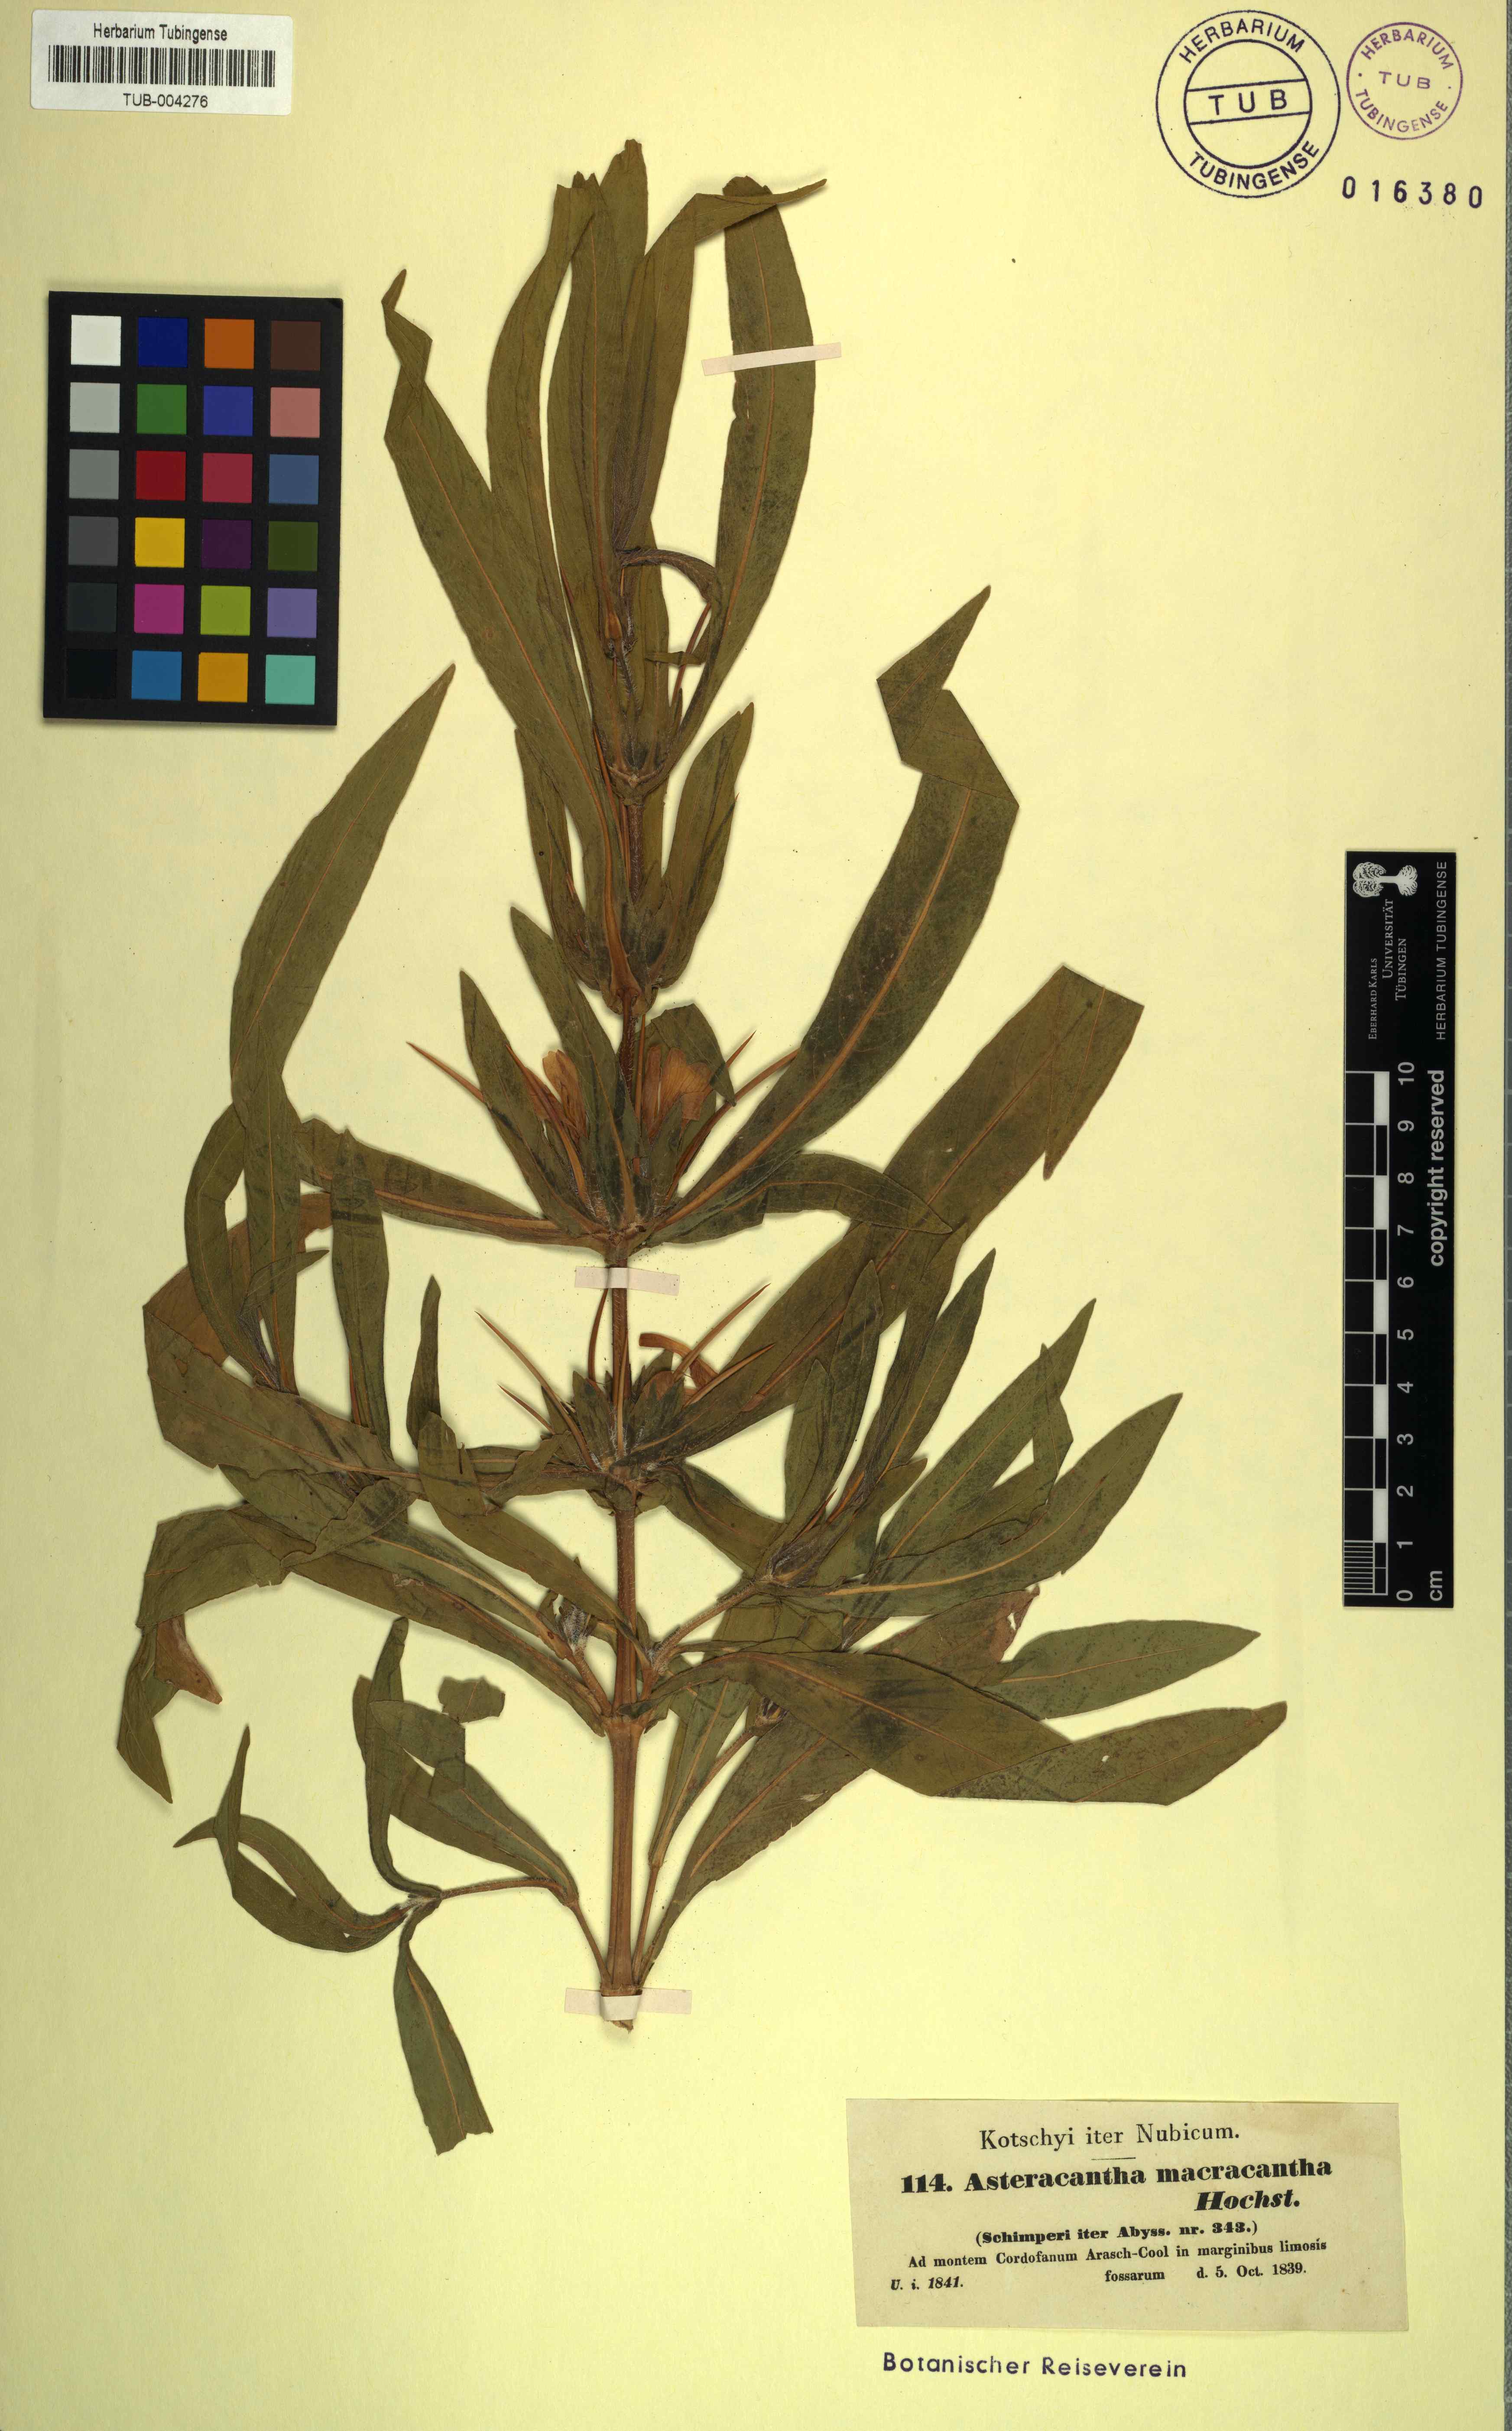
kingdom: Plantae
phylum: Tracheophyta
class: Magnoliopsida
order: Lamiales
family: Acanthaceae
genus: Hygrophila
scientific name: Hygrophila auriculata
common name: Hygrophila
